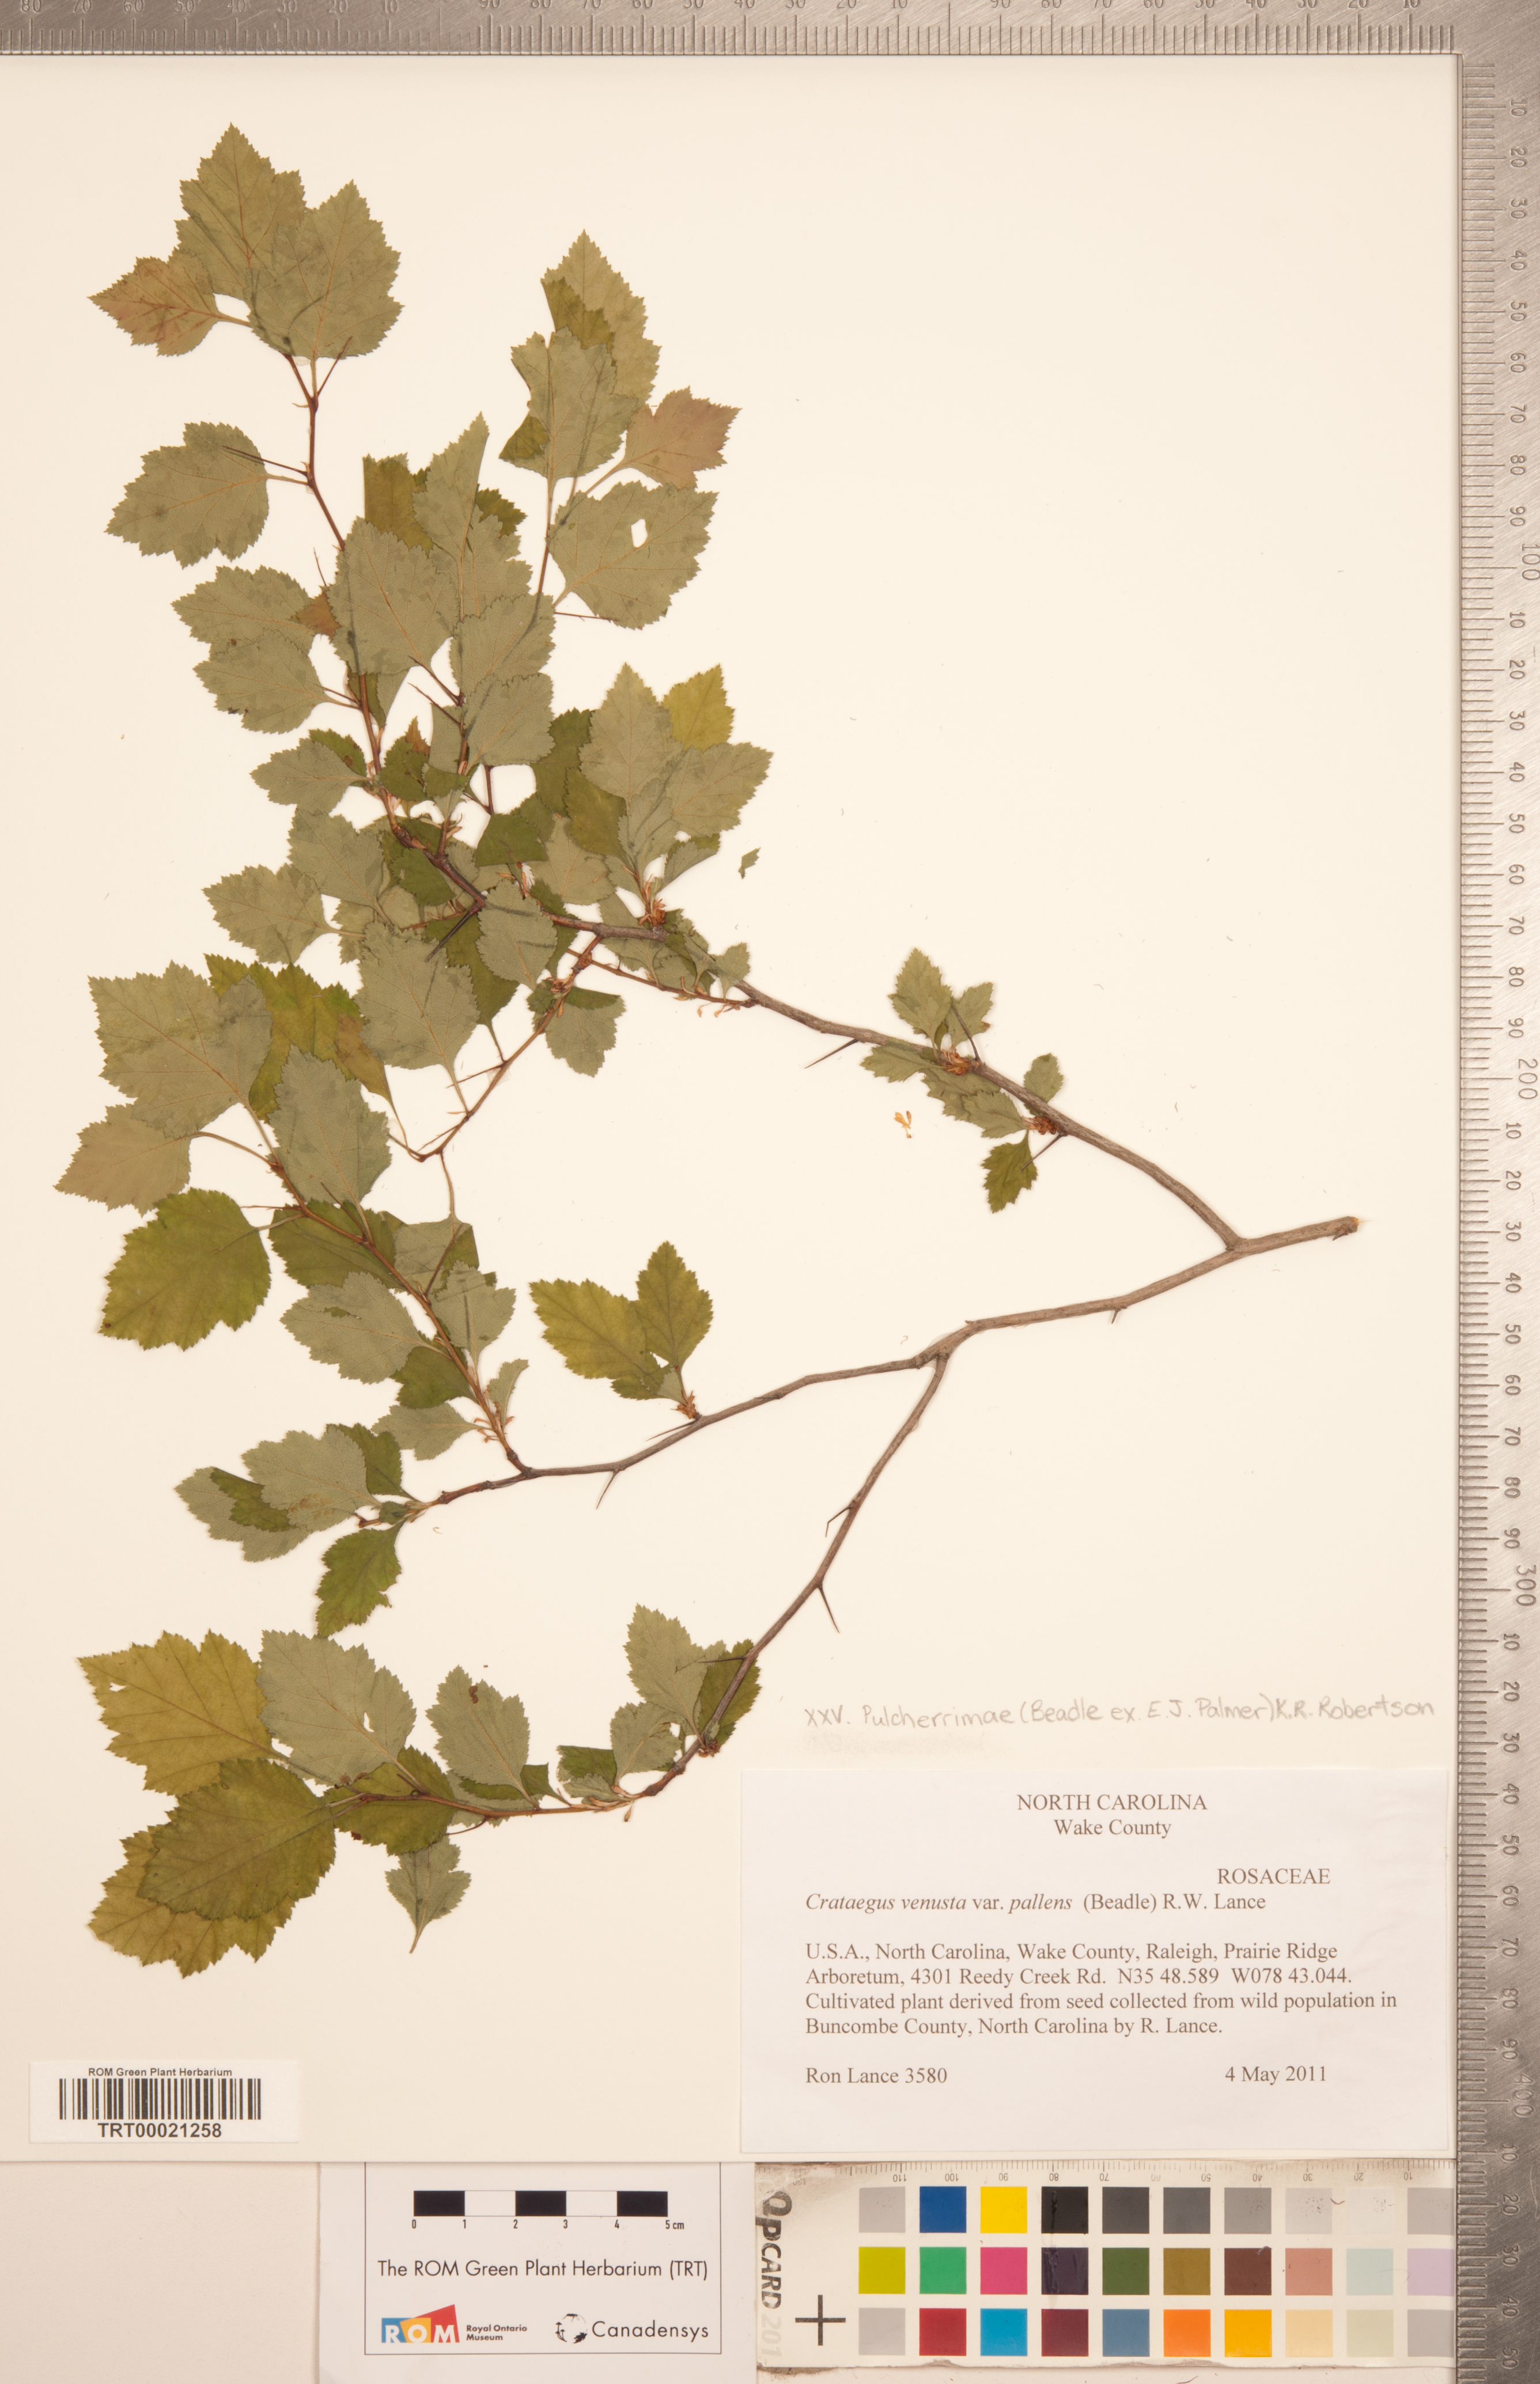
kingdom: Plantae
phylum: Tracheophyta
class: Magnoliopsida
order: Rosales
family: Rosaceae
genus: Crataegus
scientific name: Crataegus pulcherrima
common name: Beautiful hawthorn
